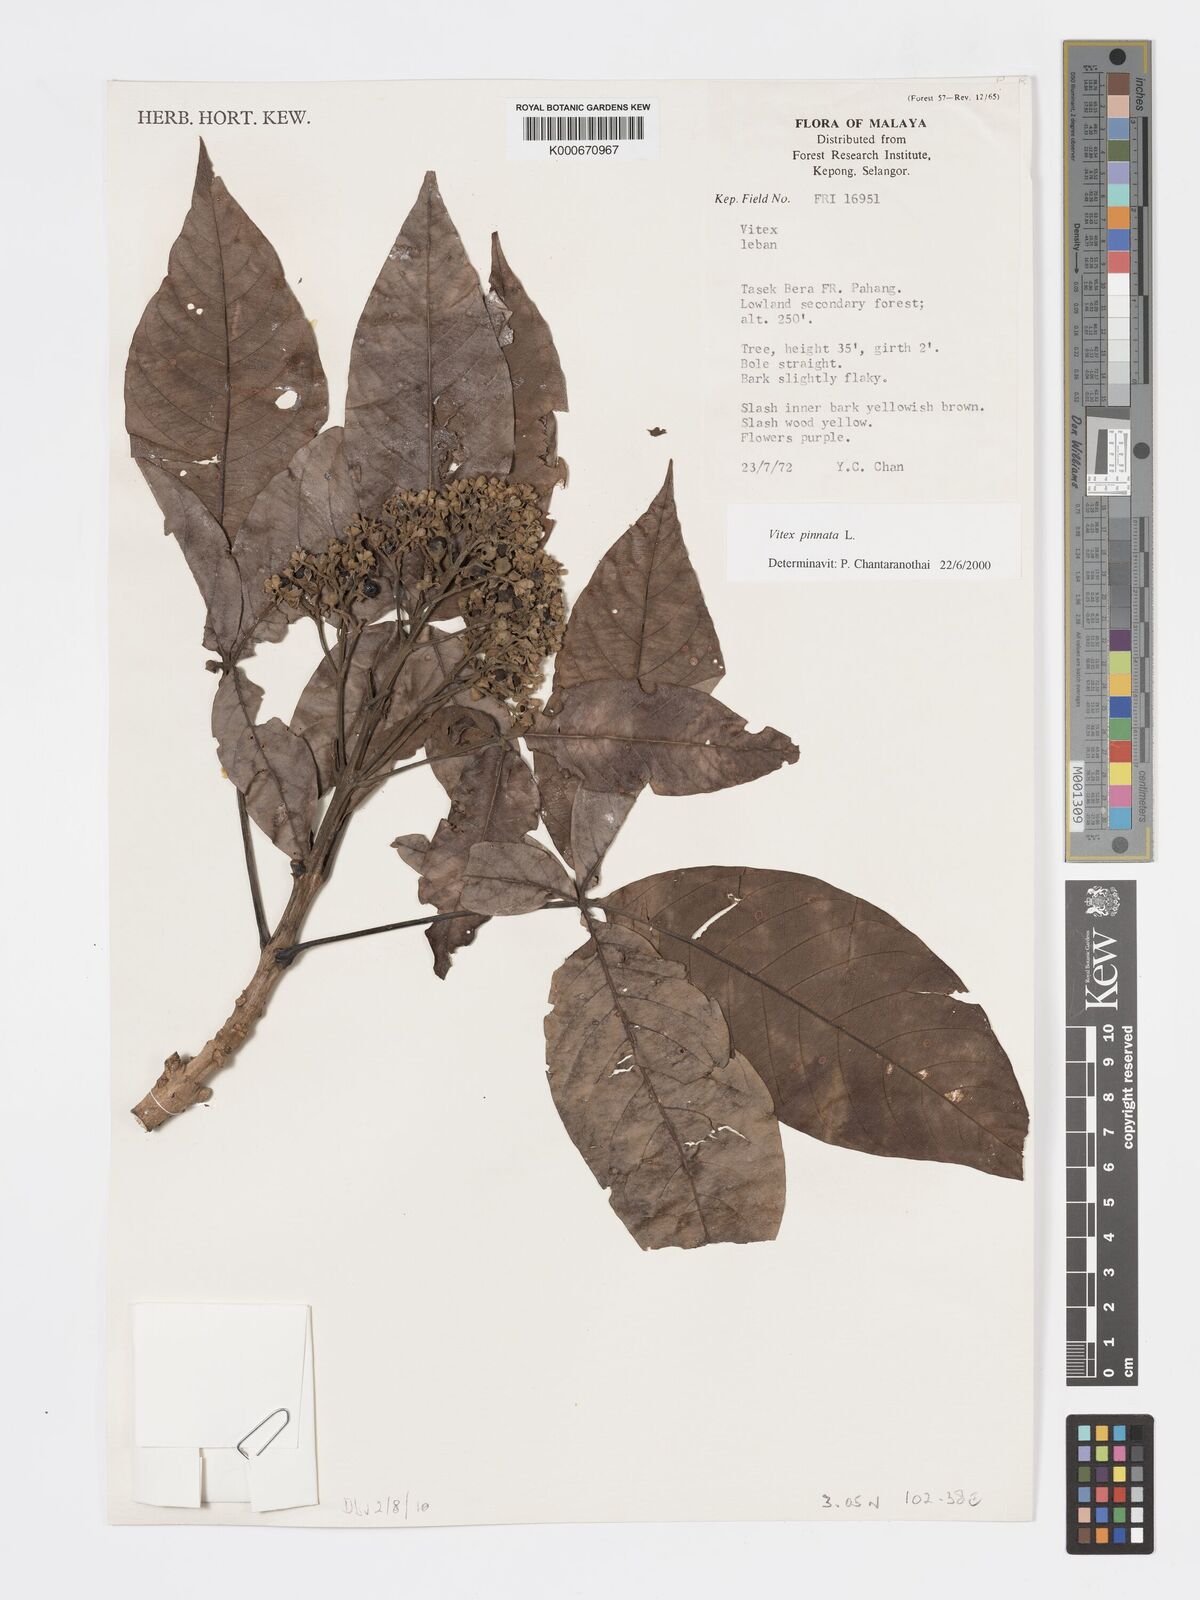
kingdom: Plantae
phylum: Tracheophyta
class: Magnoliopsida
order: Lamiales
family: Lamiaceae
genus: Vitex
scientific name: Vitex pinnata
